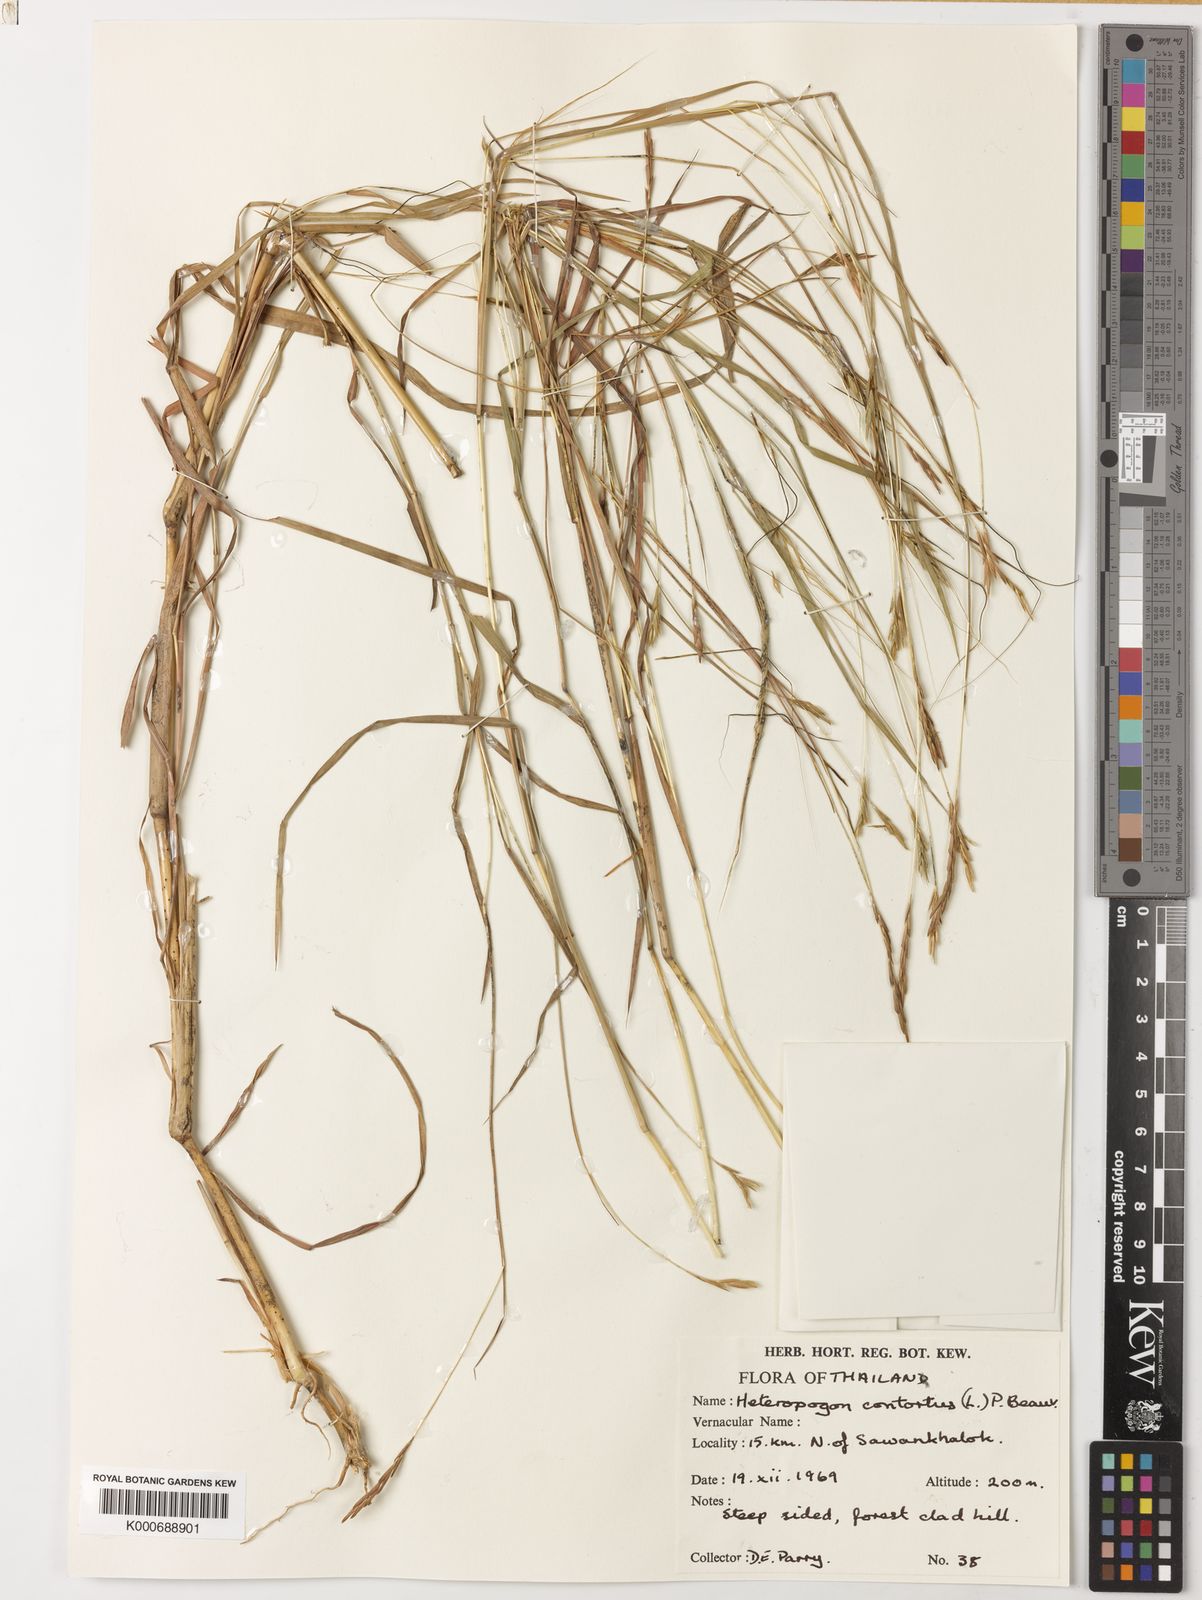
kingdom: Plantae
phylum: Tracheophyta
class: Liliopsida
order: Poales
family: Poaceae
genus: Heteropogon
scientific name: Heteropogon contortus
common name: Tanglehead
